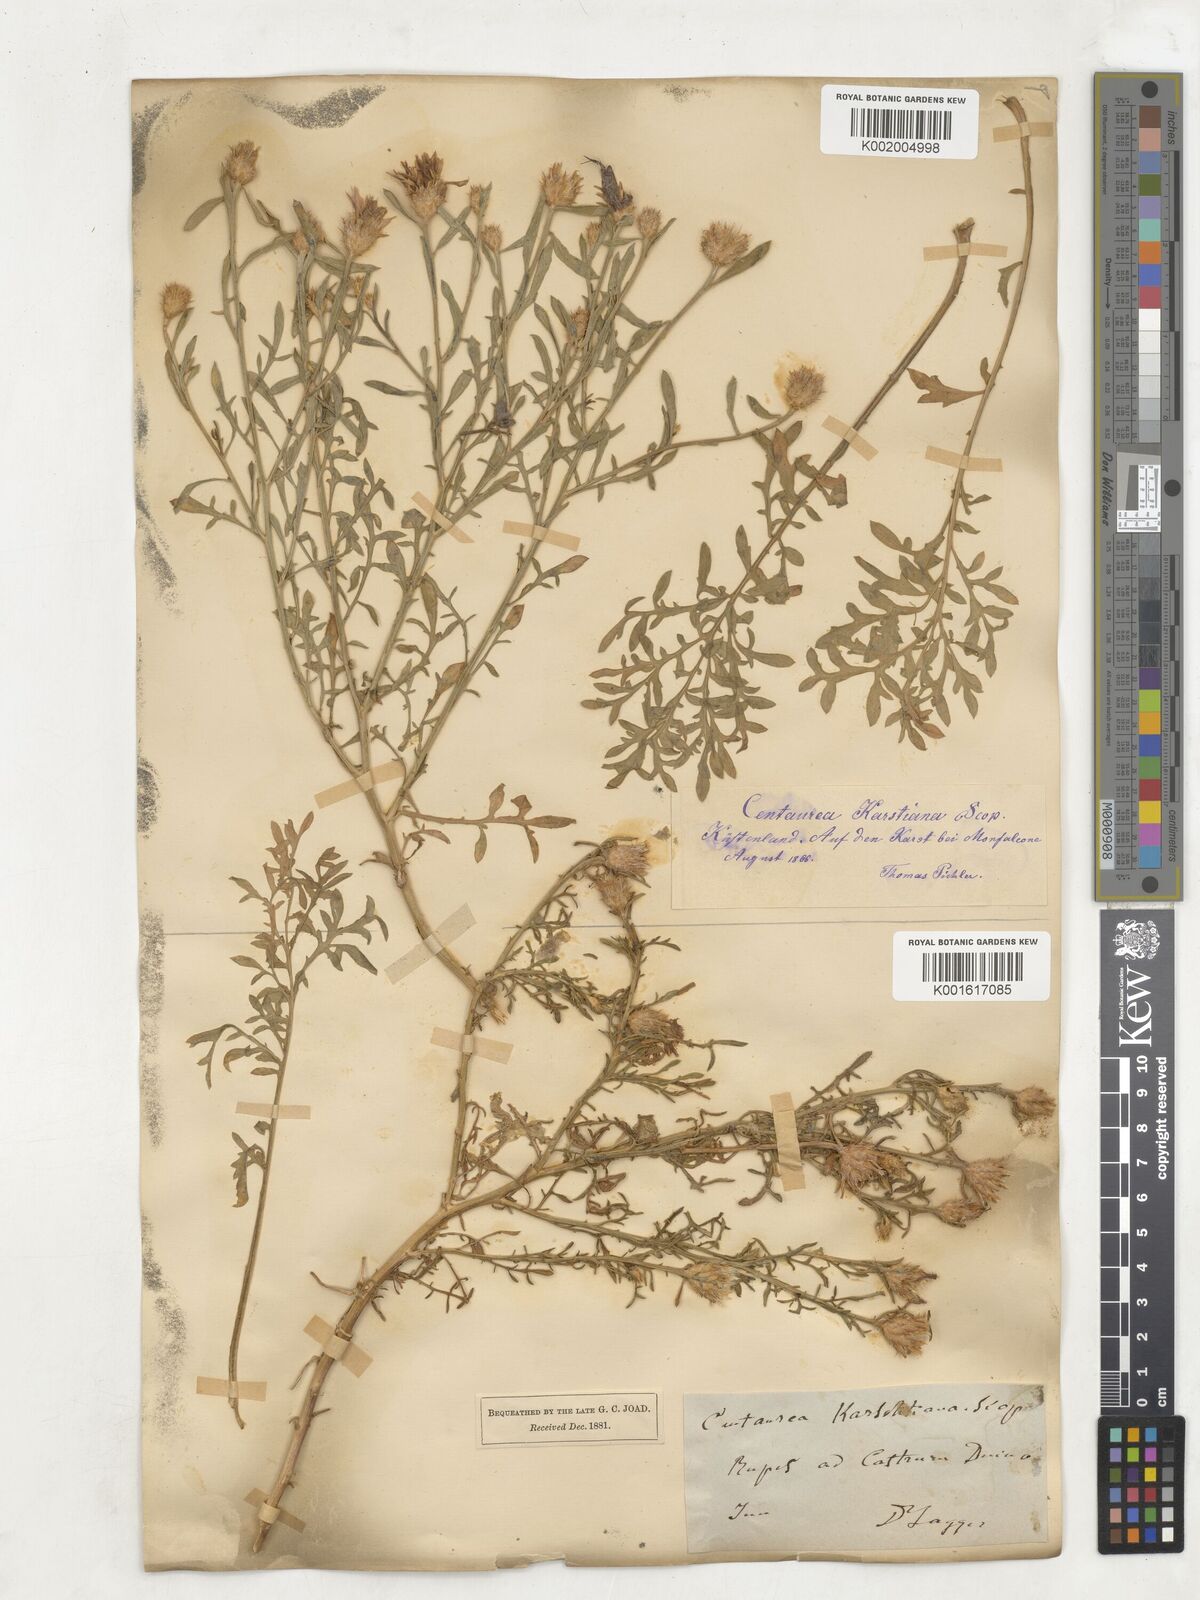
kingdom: Plantae
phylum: Tracheophyta
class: Magnoliopsida
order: Asterales
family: Asteraceae
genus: Centaurea
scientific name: Centaurea kartschiana
